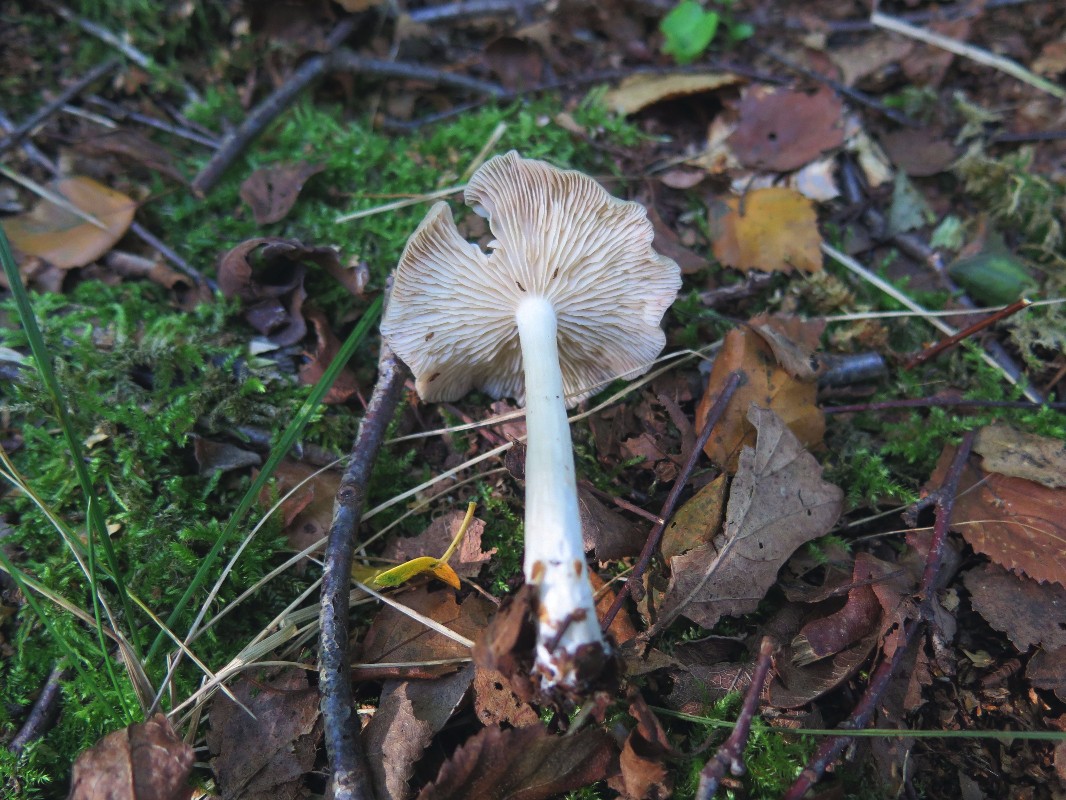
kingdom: Fungi
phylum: Basidiomycota
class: Agaricomycetes
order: Agaricales
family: Entolomataceae
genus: Entoloma
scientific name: Entoloma sericatum
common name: rank rødblad
